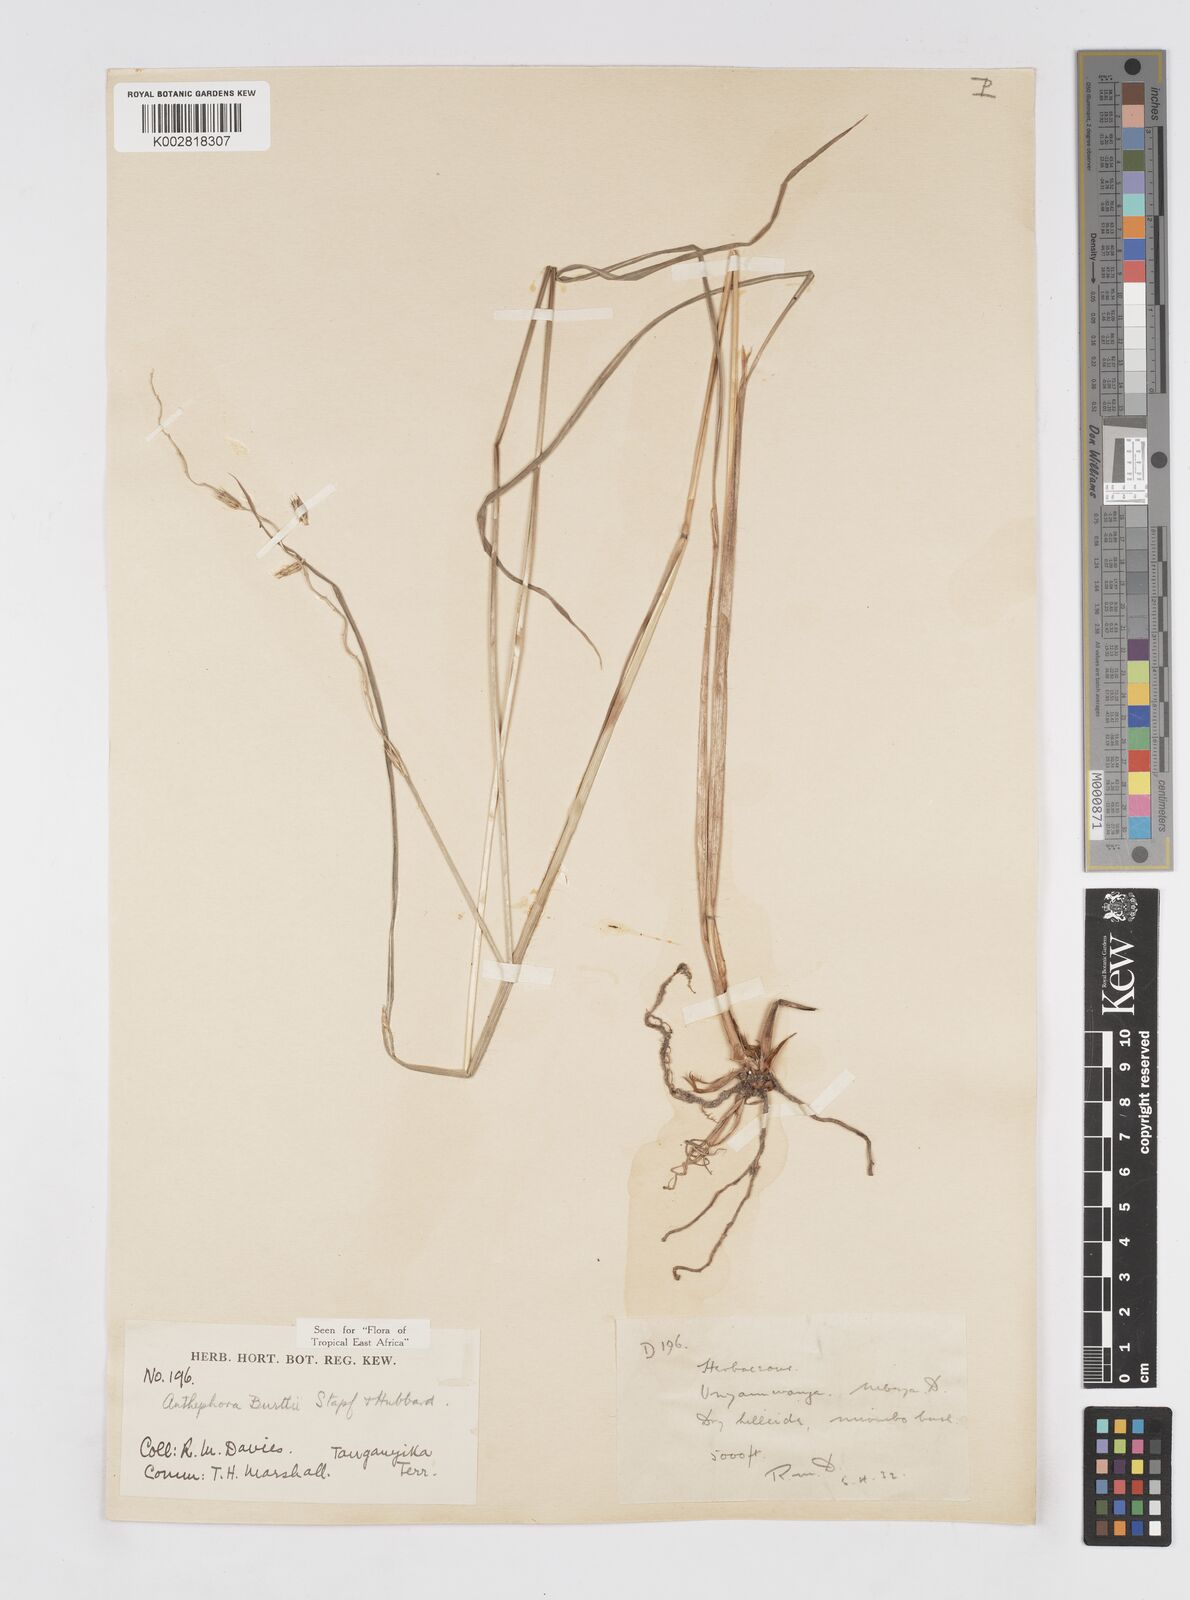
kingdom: Plantae
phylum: Tracheophyta
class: Liliopsida
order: Poales
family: Poaceae
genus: Anthephora
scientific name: Anthephora elongata
